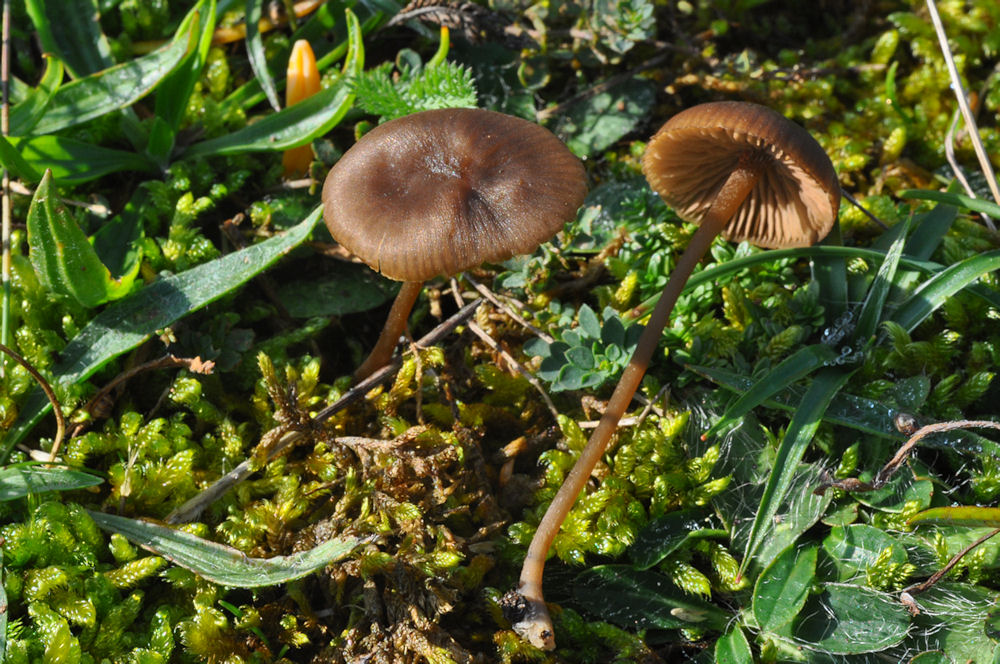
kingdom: Fungi
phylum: Basidiomycota
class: Agaricomycetes
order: Agaricales
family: Entolomataceae
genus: Entoloma
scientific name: Entoloma infula
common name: hvidbladet rødblad
